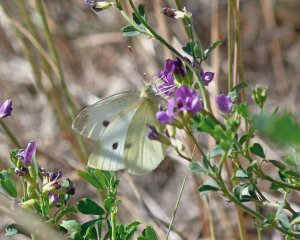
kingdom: Animalia
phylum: Arthropoda
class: Insecta
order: Lepidoptera
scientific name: Lepidoptera
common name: Butterflies
